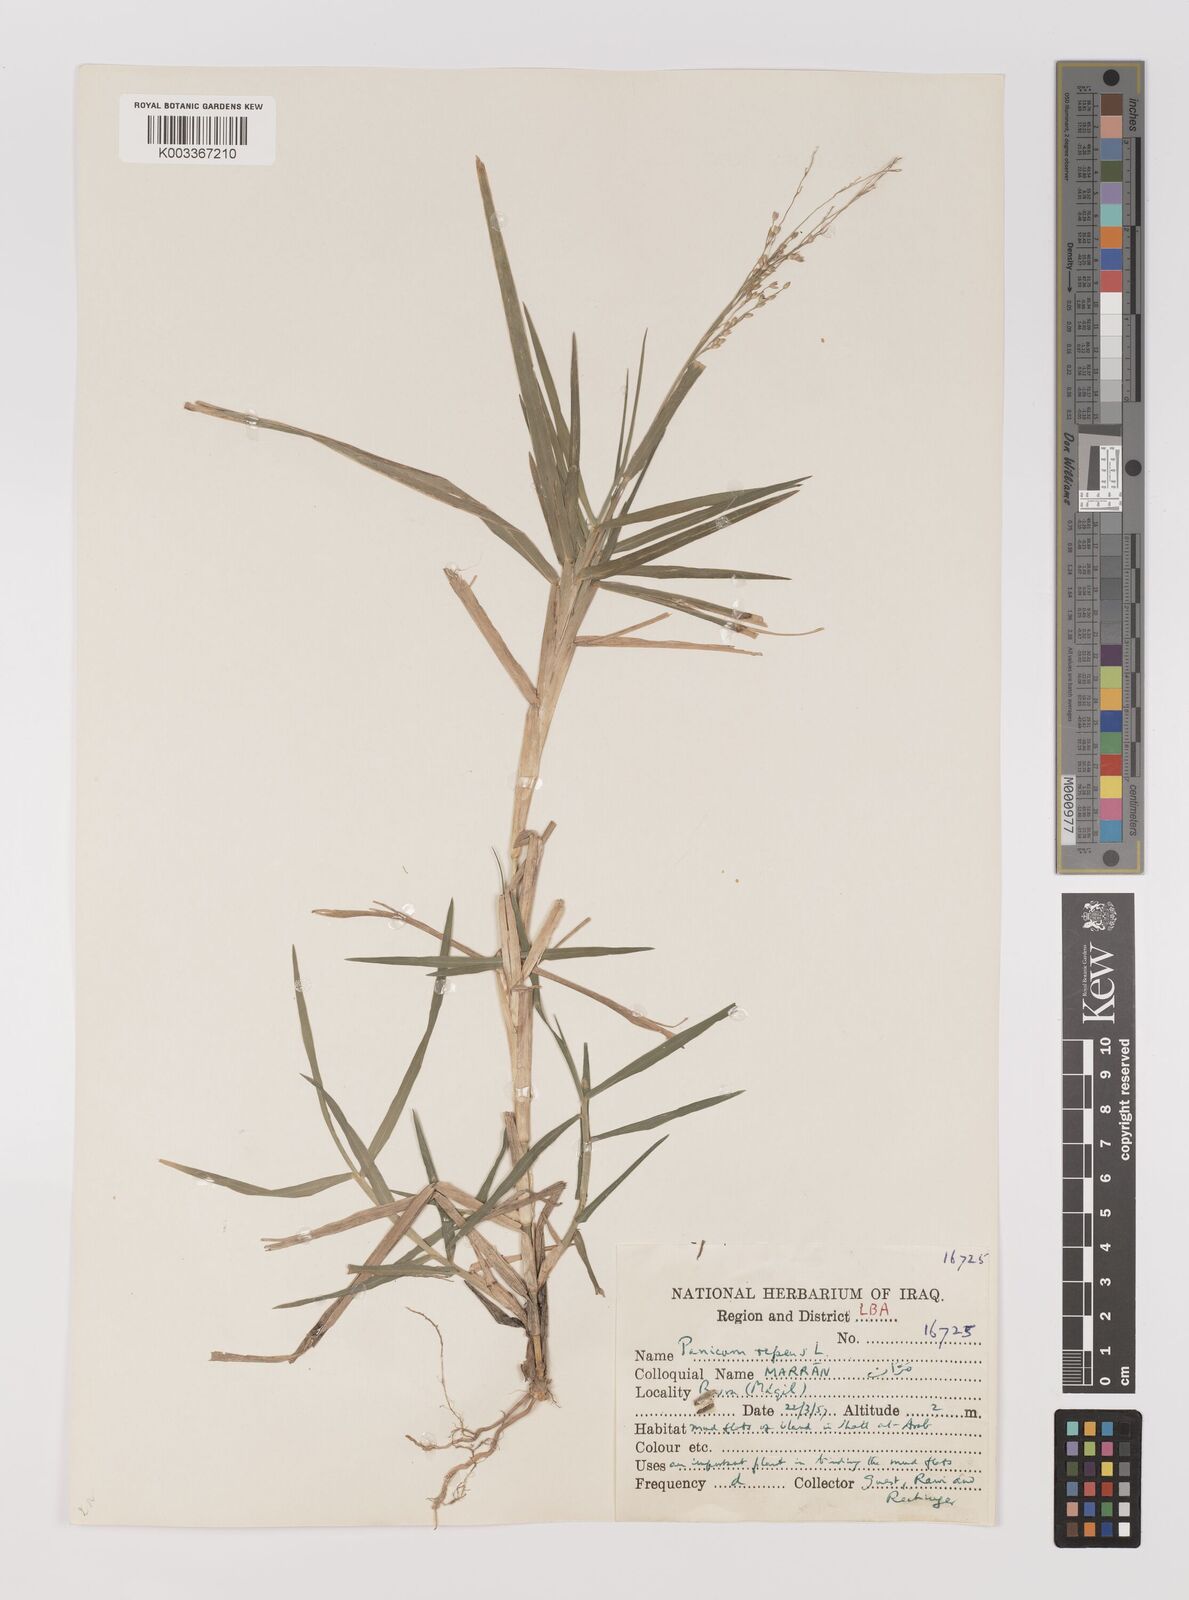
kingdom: Plantae
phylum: Tracheophyta
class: Liliopsida
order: Poales
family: Poaceae
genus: Panicum
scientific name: Panicum repens
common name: Torpedo grass
